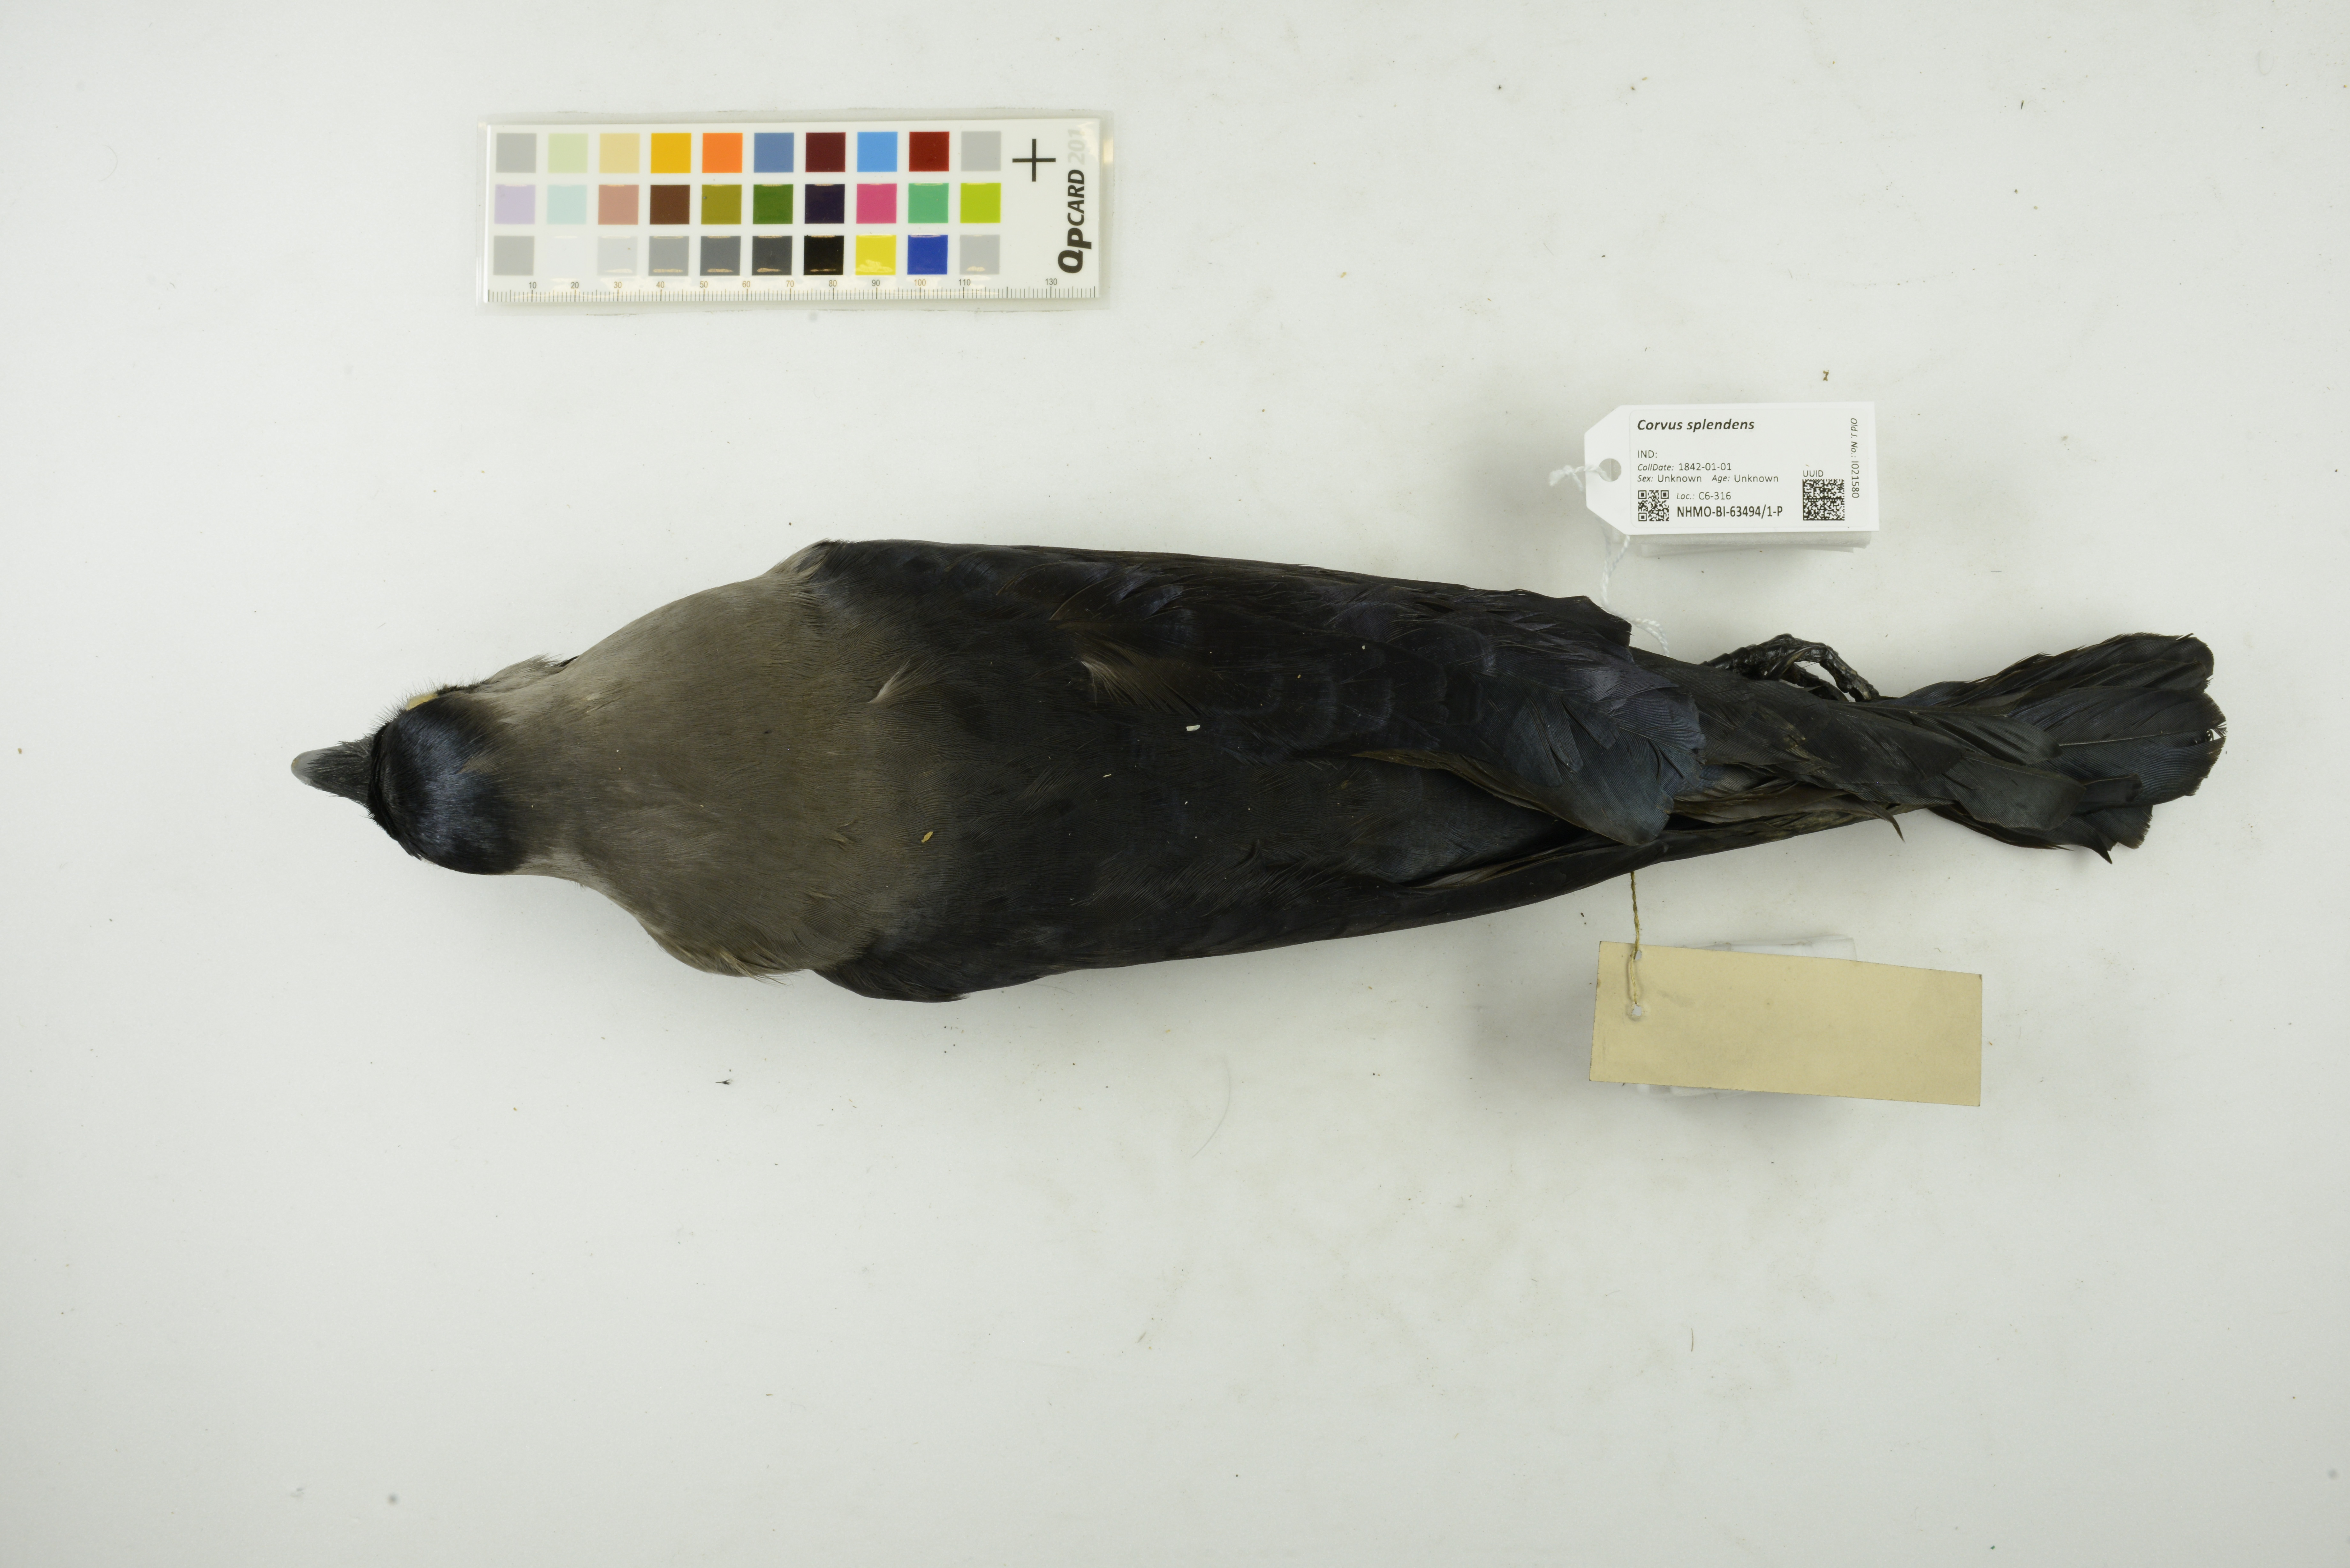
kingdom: Animalia
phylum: Chordata
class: Aves
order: Passeriformes
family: Corvidae
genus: Corvus
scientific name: Corvus splendens
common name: House crow
